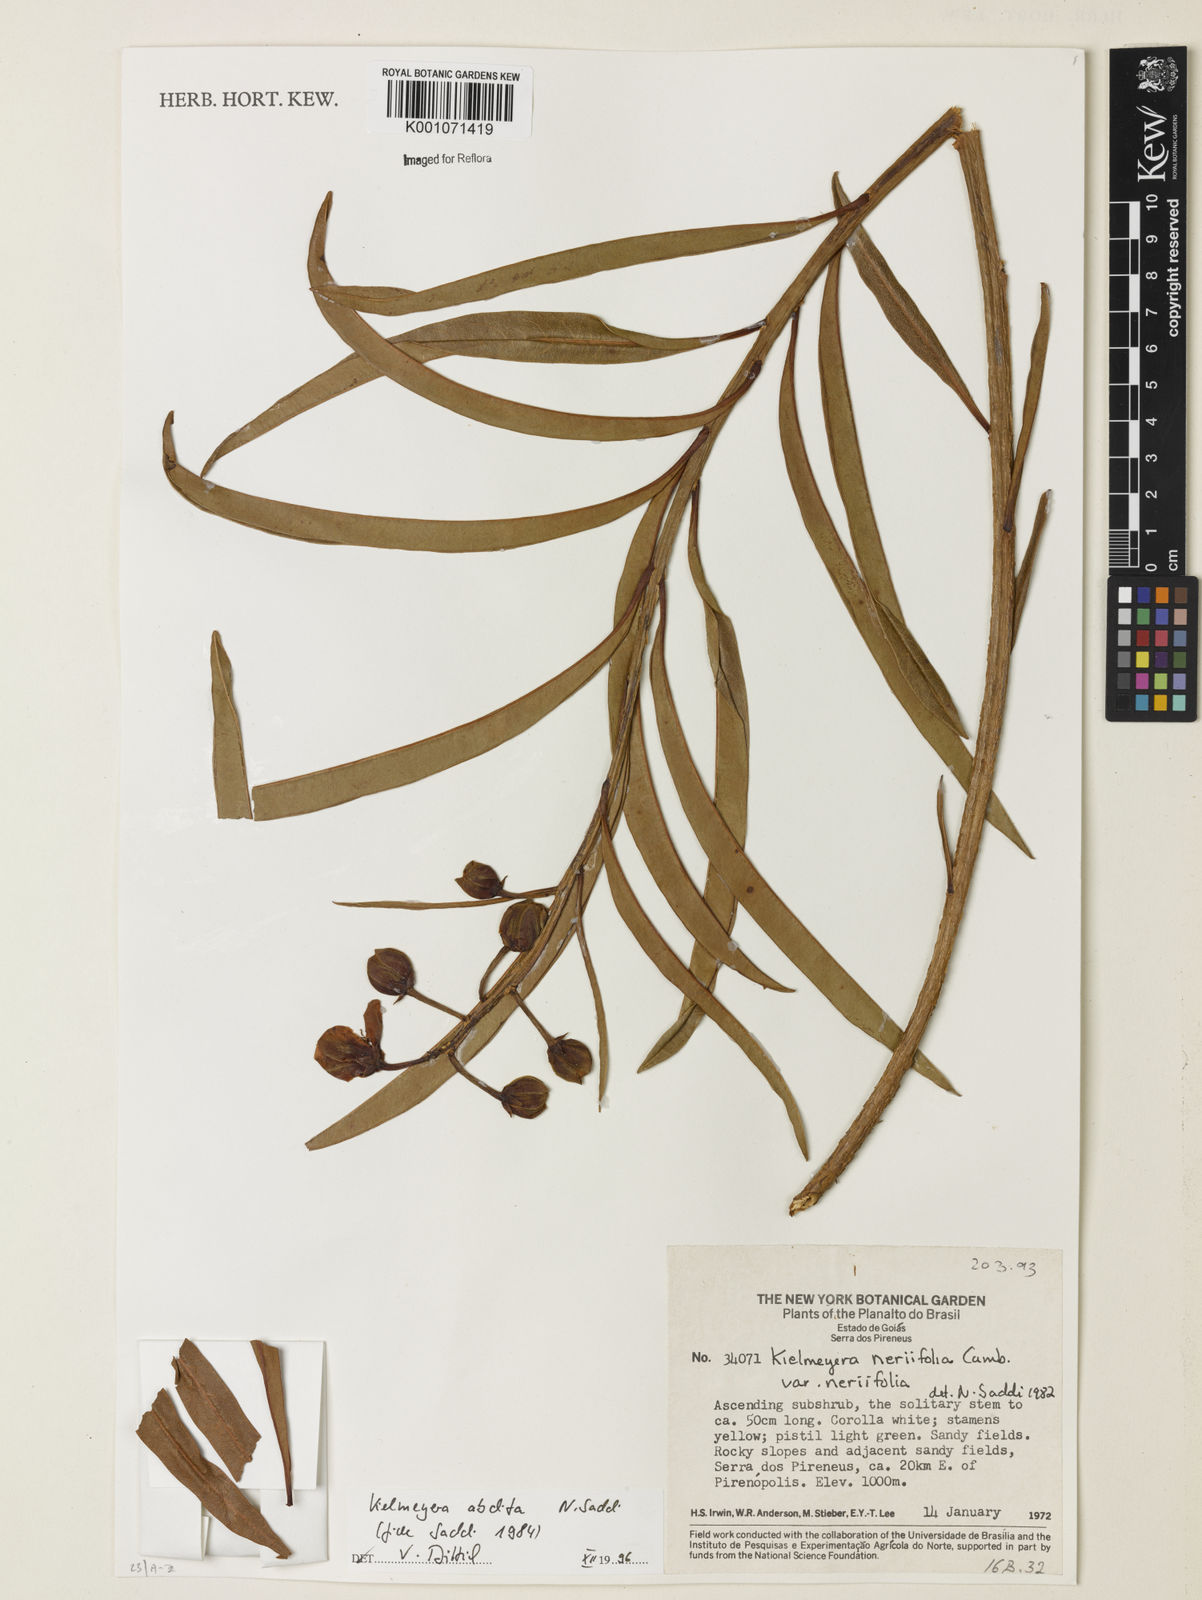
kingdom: Plantae
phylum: Tracheophyta
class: Magnoliopsida
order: Malpighiales
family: Calophyllaceae
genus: Kielmeyera
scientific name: Kielmeyera abdita
